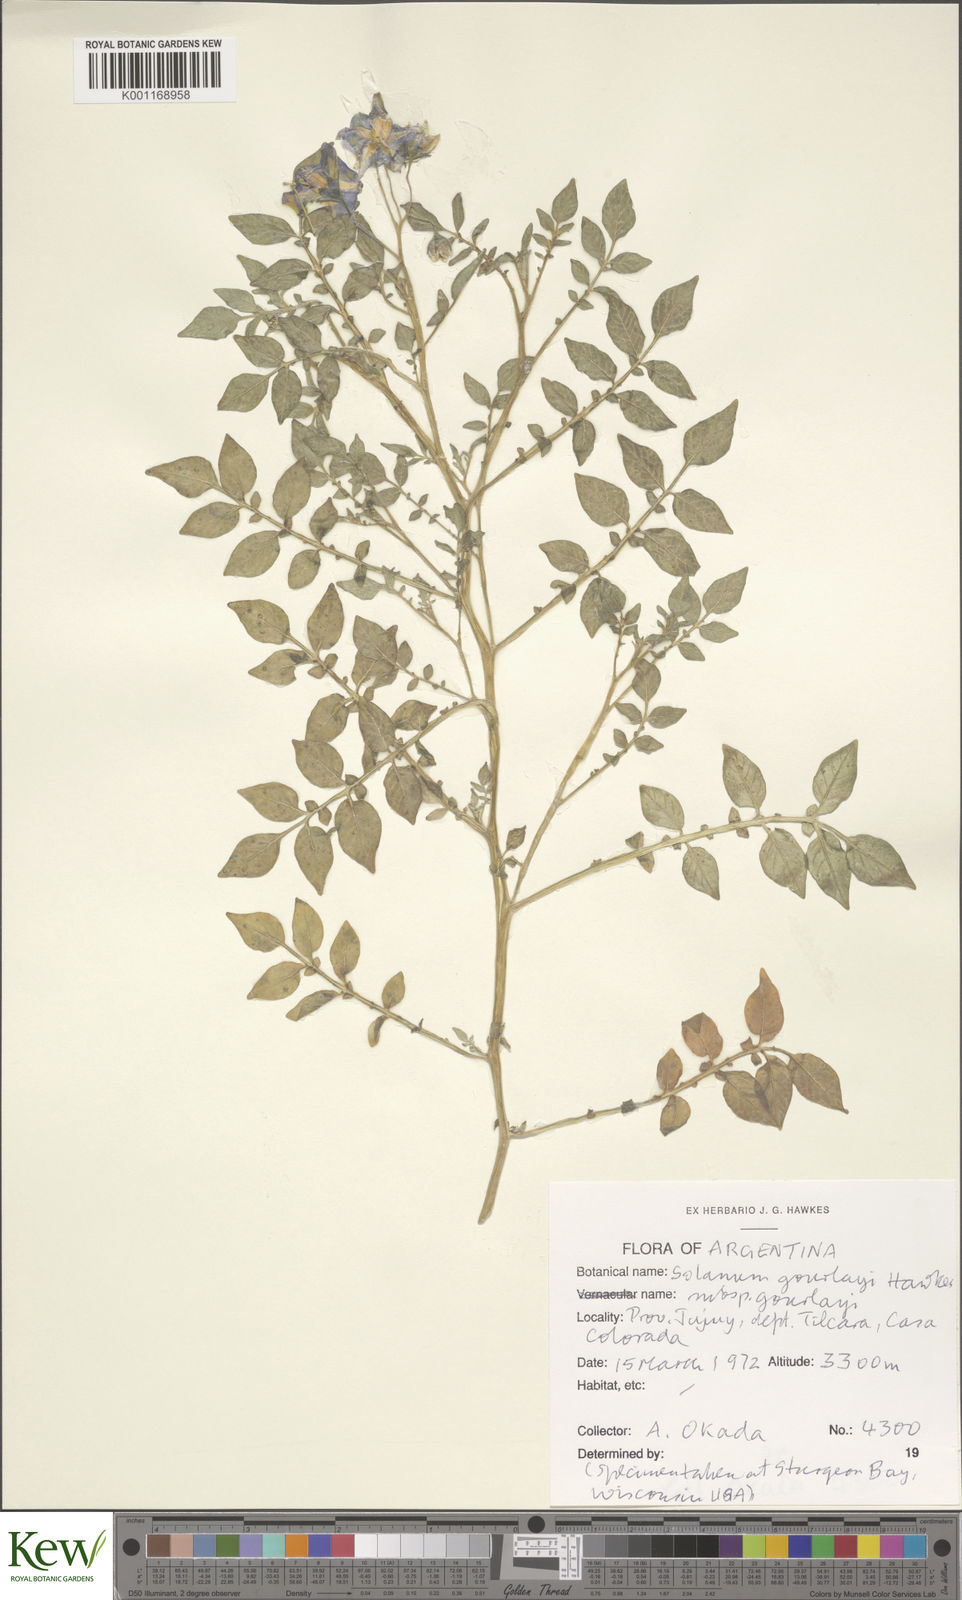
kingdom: Plantae
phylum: Tracheophyta
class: Magnoliopsida
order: Solanales
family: Solanaceae
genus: Solanum
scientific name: Solanum brevicaule
